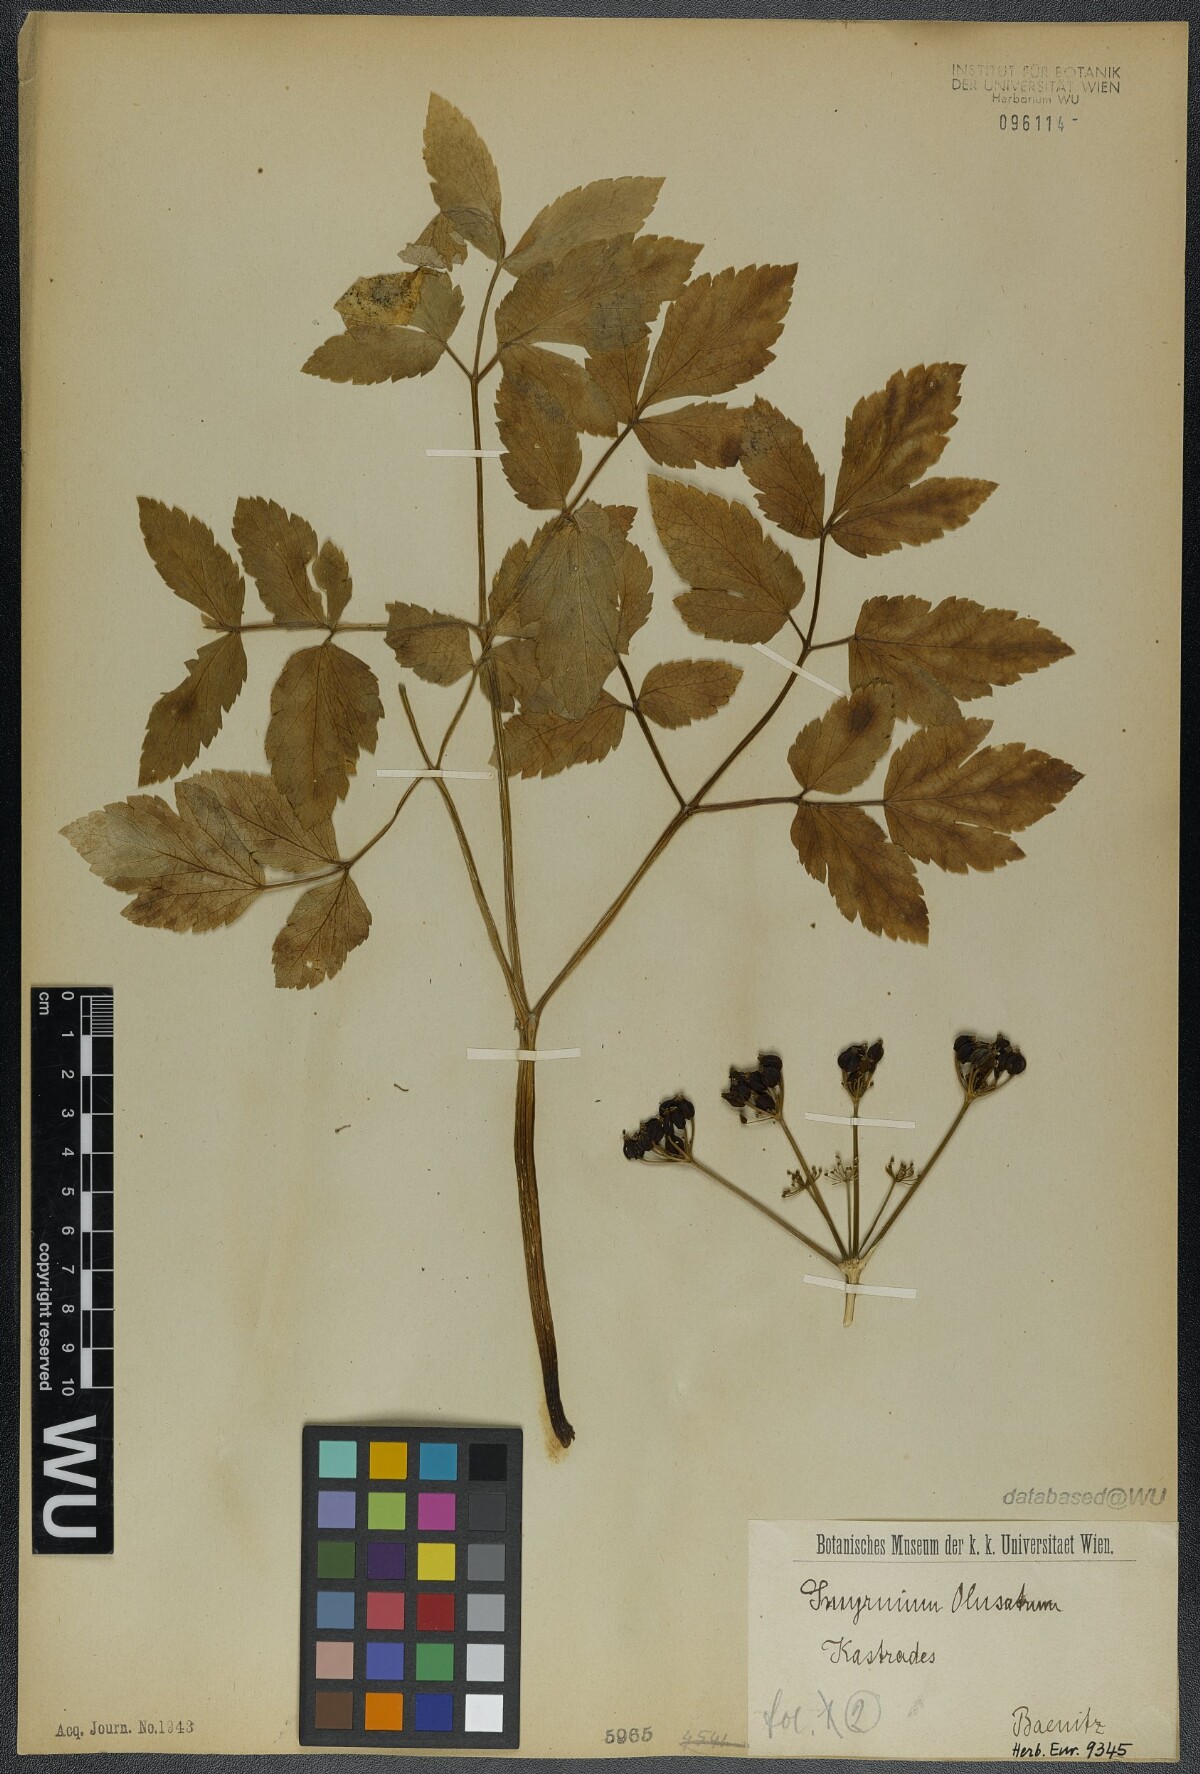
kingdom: Plantae
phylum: Tracheophyta
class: Magnoliopsida
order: Apiales
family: Apiaceae
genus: Smyrnium
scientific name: Smyrnium olusatrum
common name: Alexanders
